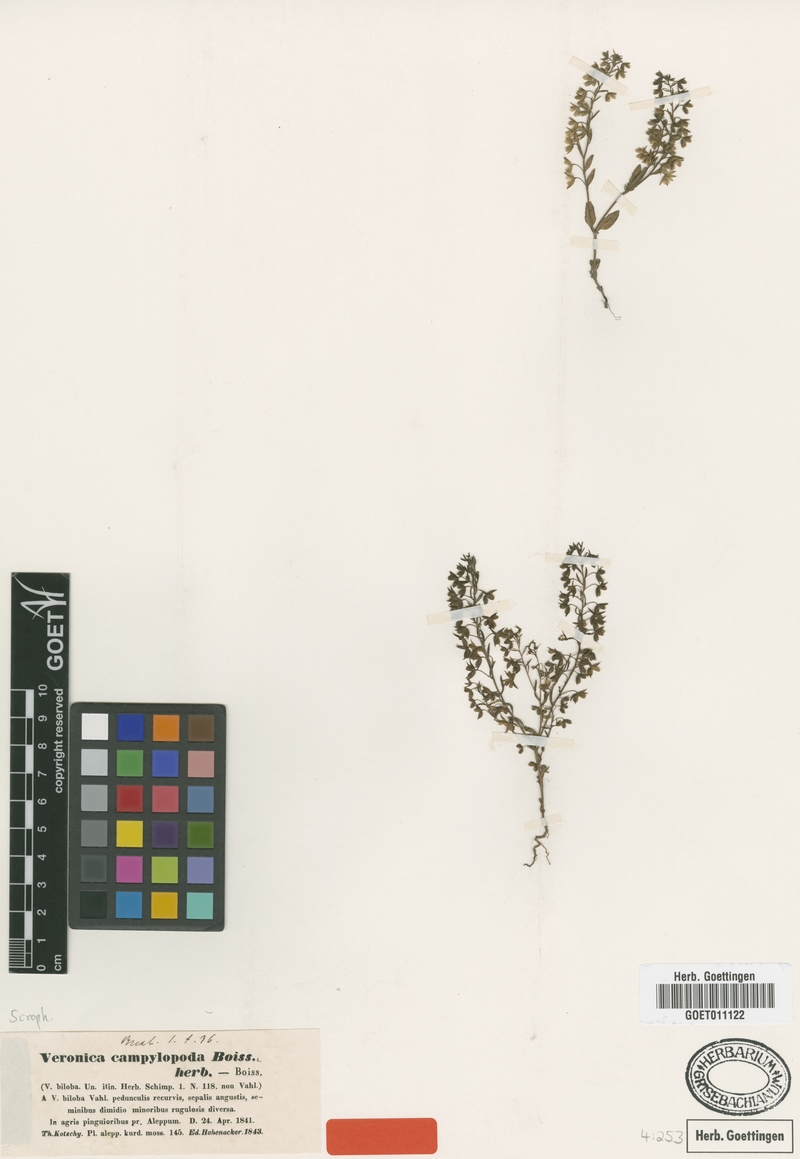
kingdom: Plantae
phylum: Tracheophyta
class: Magnoliopsida
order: Lamiales
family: Plantaginaceae
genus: Veronica
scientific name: Veronica campylopoda
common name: Bent-foot speedwell
